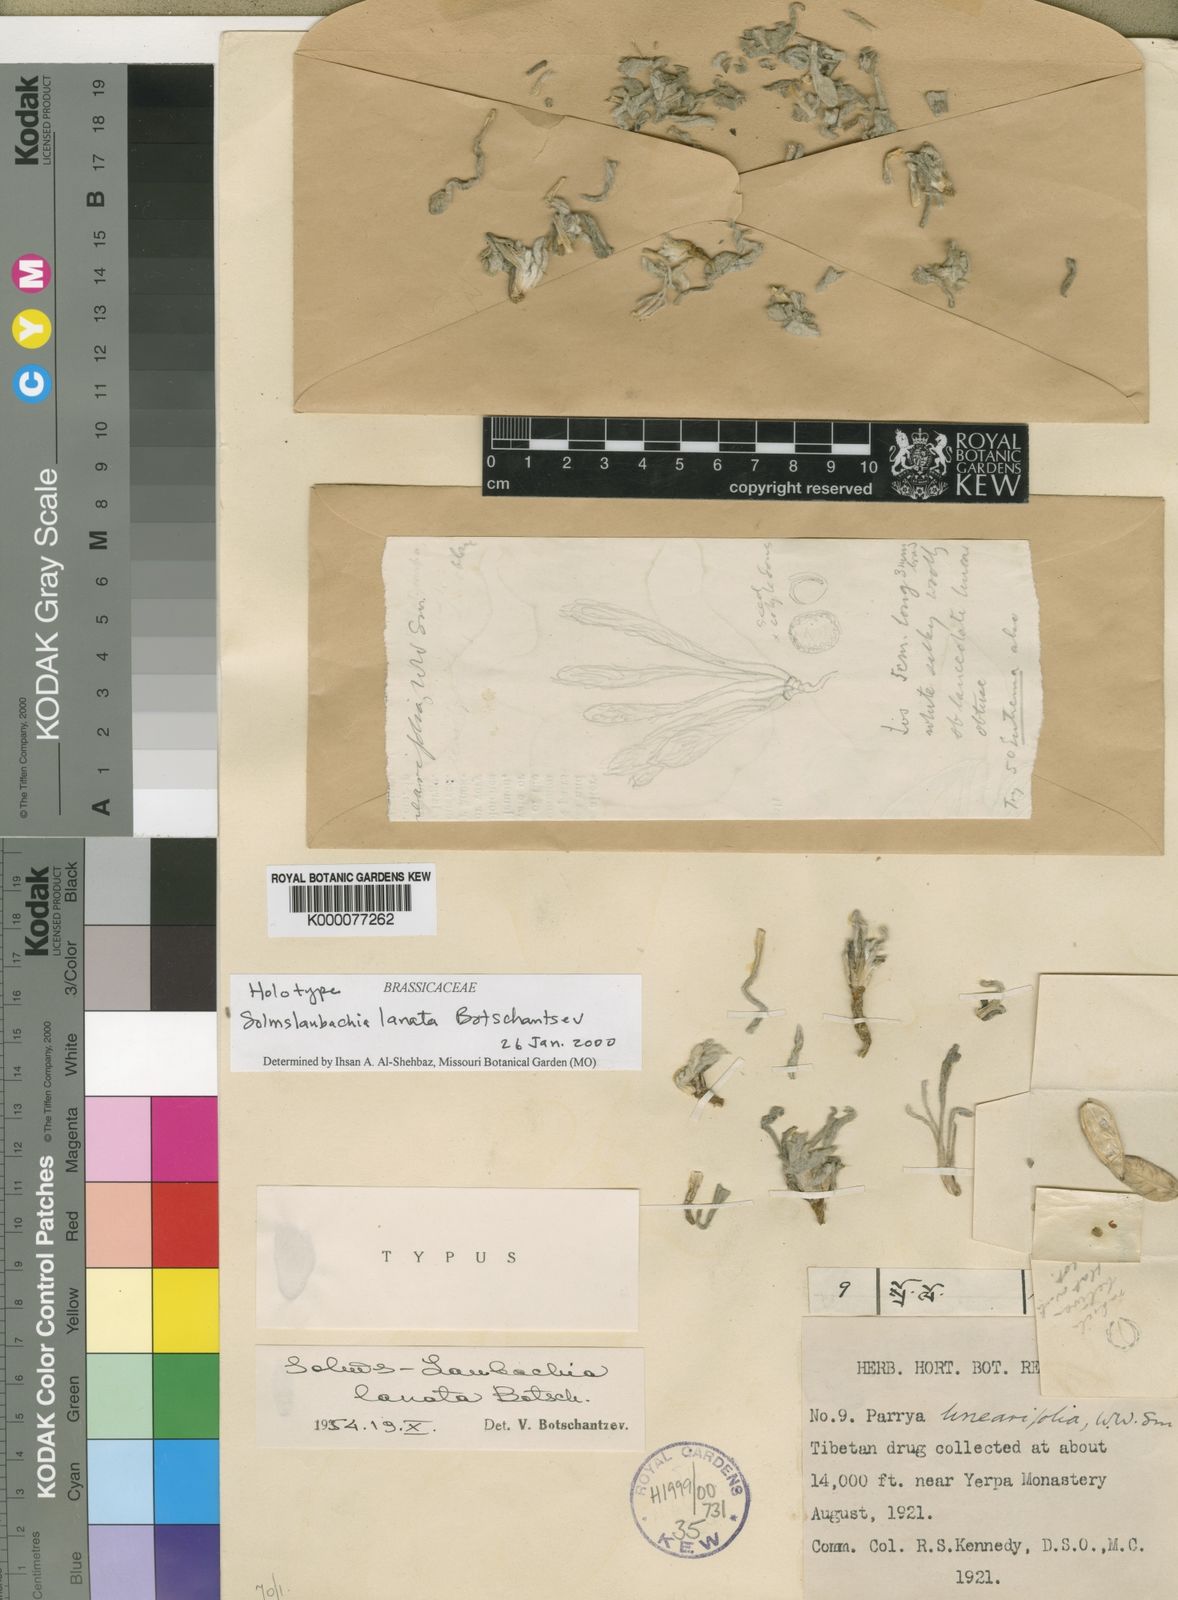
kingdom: Plantae
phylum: Tracheophyta
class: Magnoliopsida
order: Brassicales
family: Brassicaceae
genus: Solms-laubachia
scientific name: Solms-laubachia lanata
